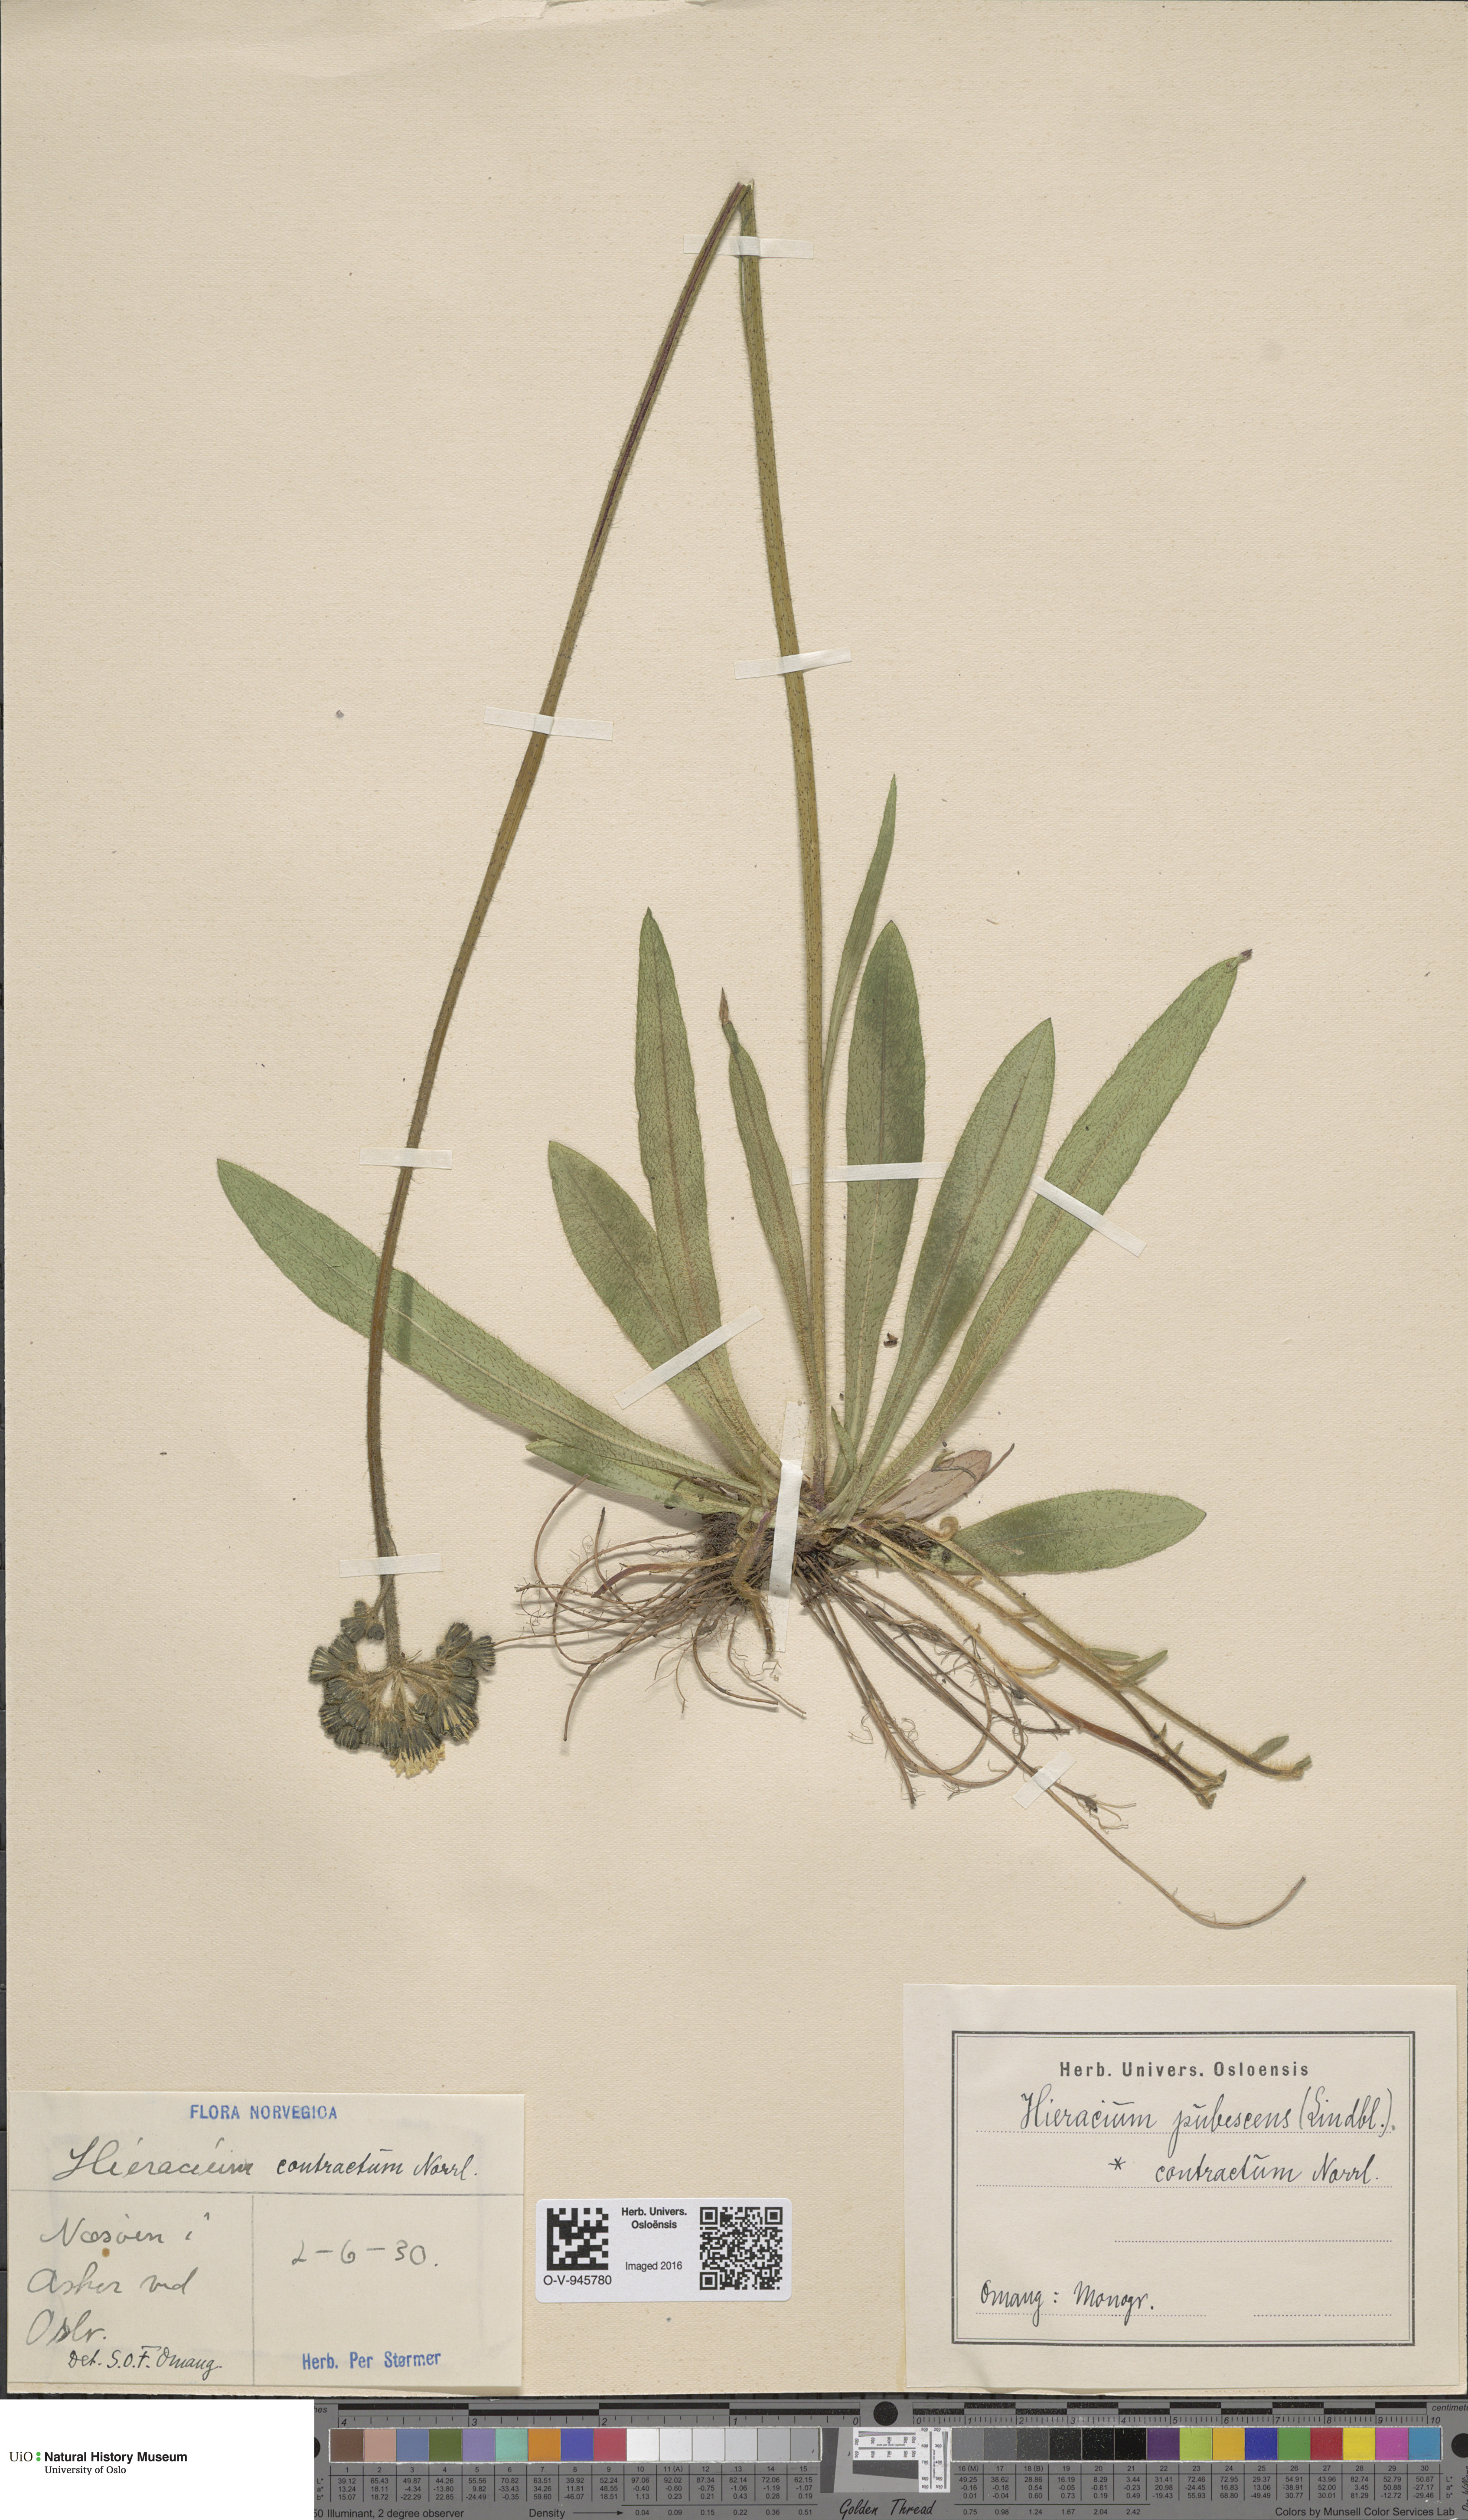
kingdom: Plantae
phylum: Tracheophyta
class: Magnoliopsida
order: Asterales
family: Asteraceae
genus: Pilosella
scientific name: Pilosella cymosa
